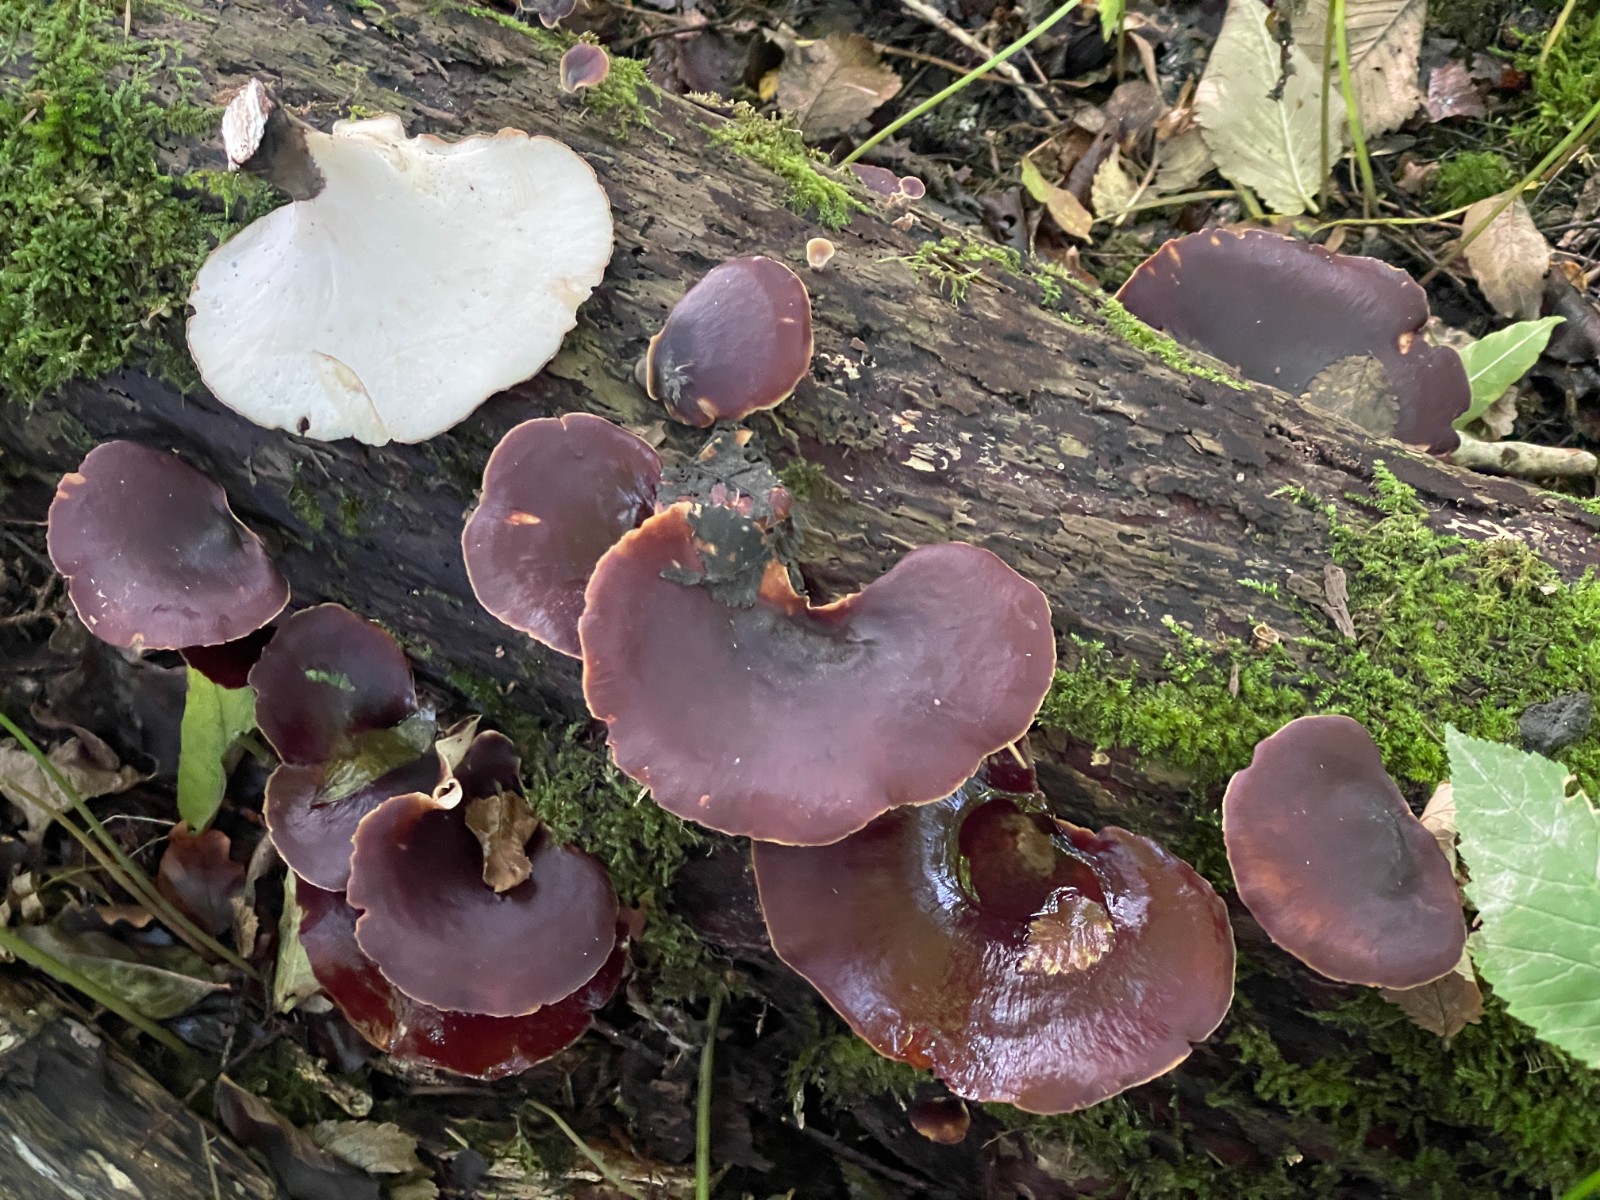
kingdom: Fungi
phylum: Basidiomycota
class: Agaricomycetes
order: Polyporales
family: Polyporaceae
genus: Picipes
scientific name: Picipes badius
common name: kastaniebrun stilkporesvamp
